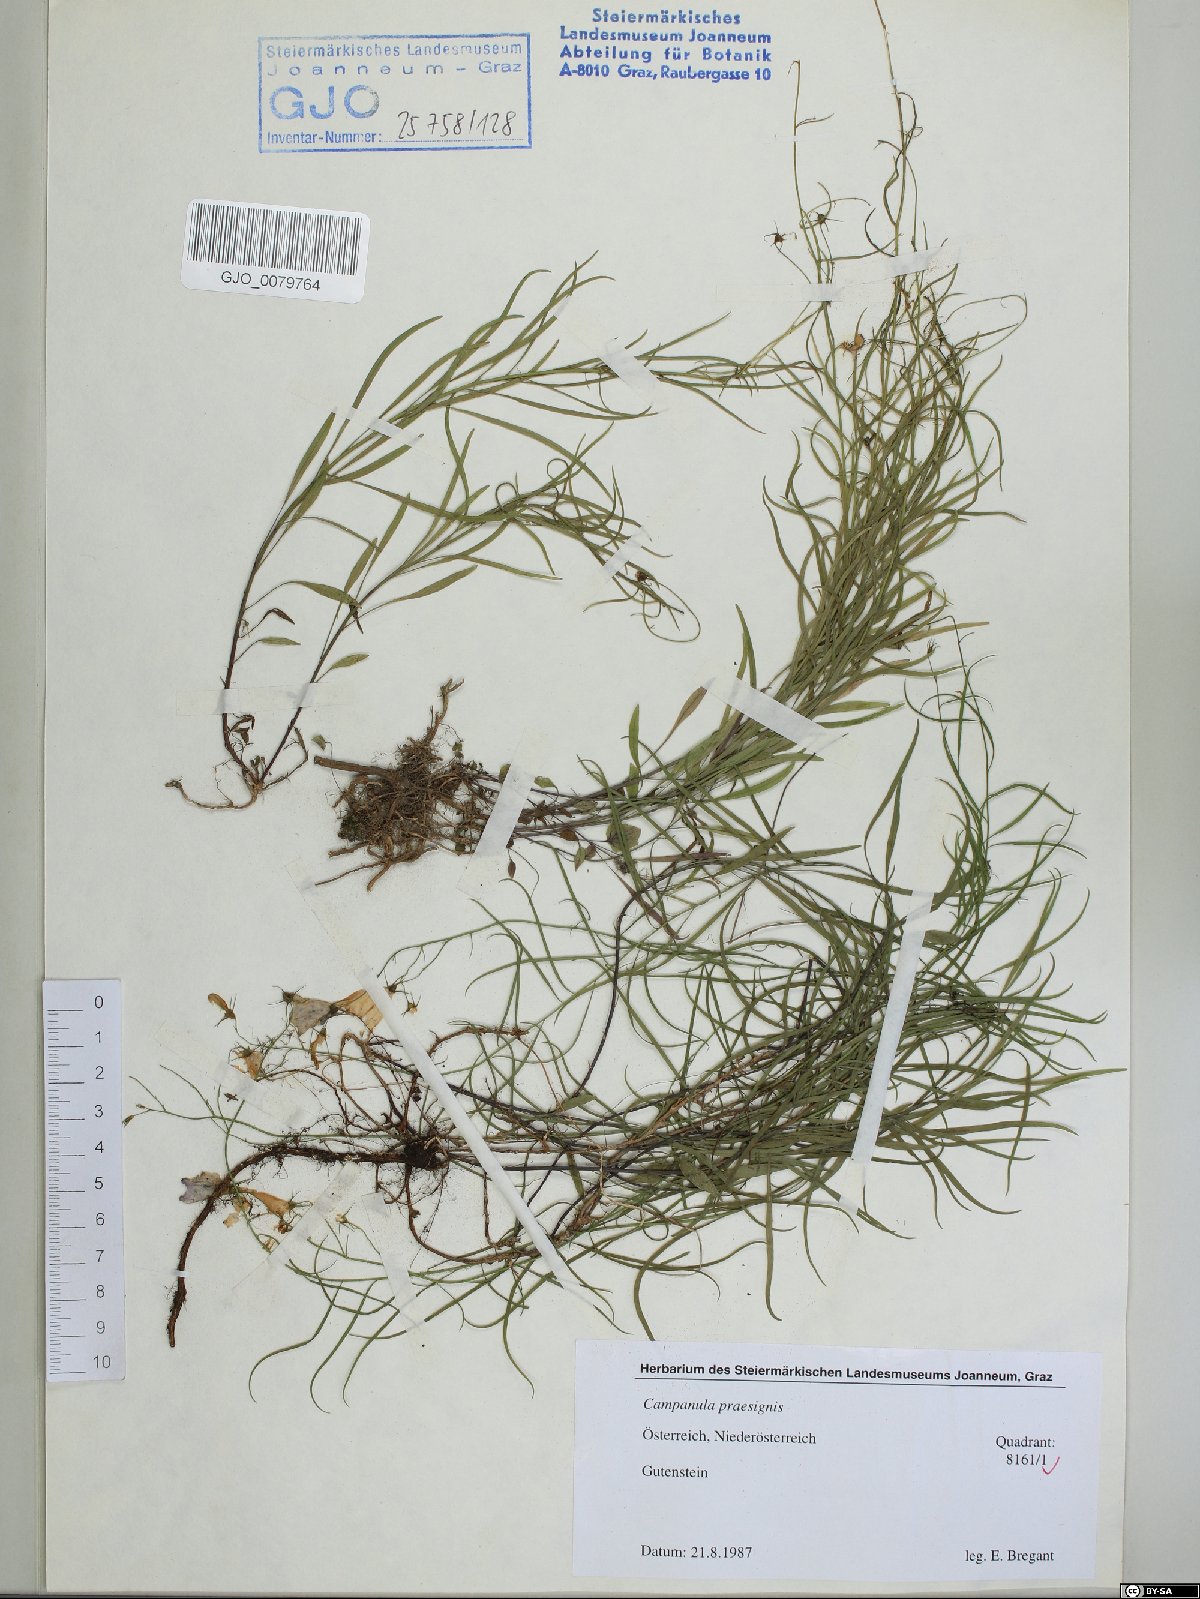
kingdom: Plantae
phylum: Tracheophyta
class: Magnoliopsida
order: Asterales
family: Campanulaceae
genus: Campanula
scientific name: Campanula praesignis
